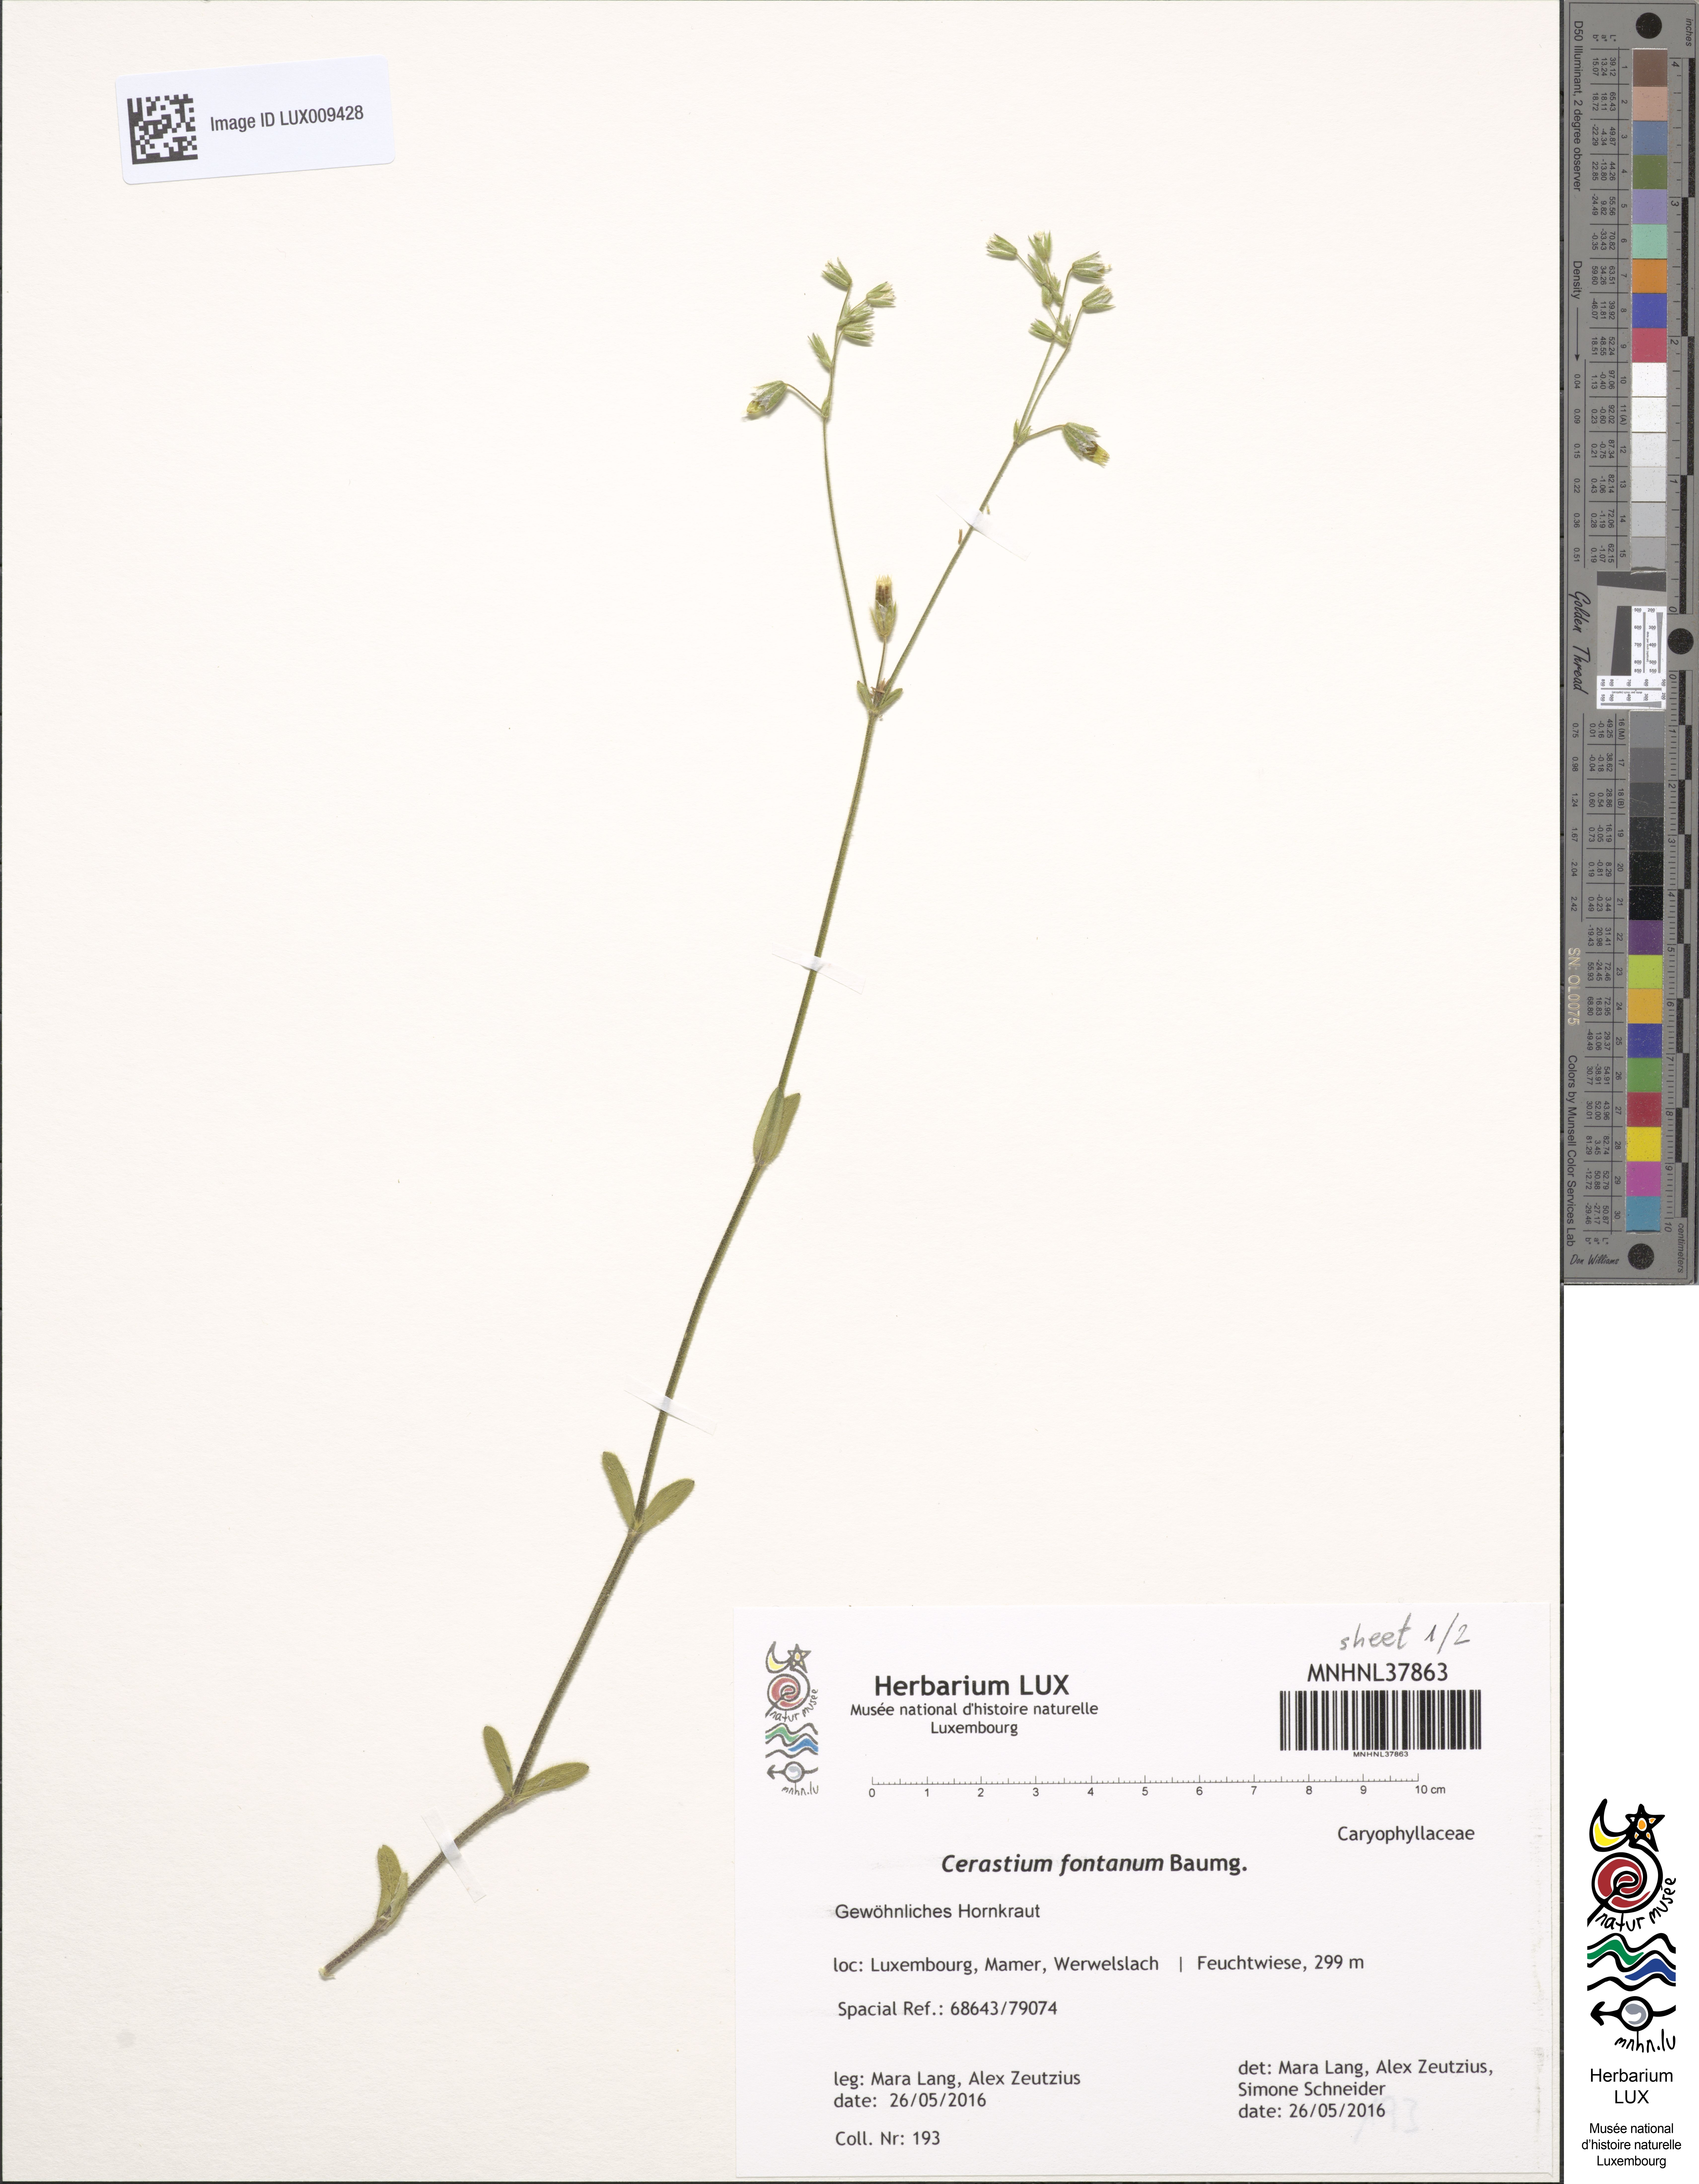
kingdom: Plantae
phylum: Tracheophyta
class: Magnoliopsida
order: Caryophyllales
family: Caryophyllaceae
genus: Cerastium
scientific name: Cerastium fontanum
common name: Common mouse-ear
